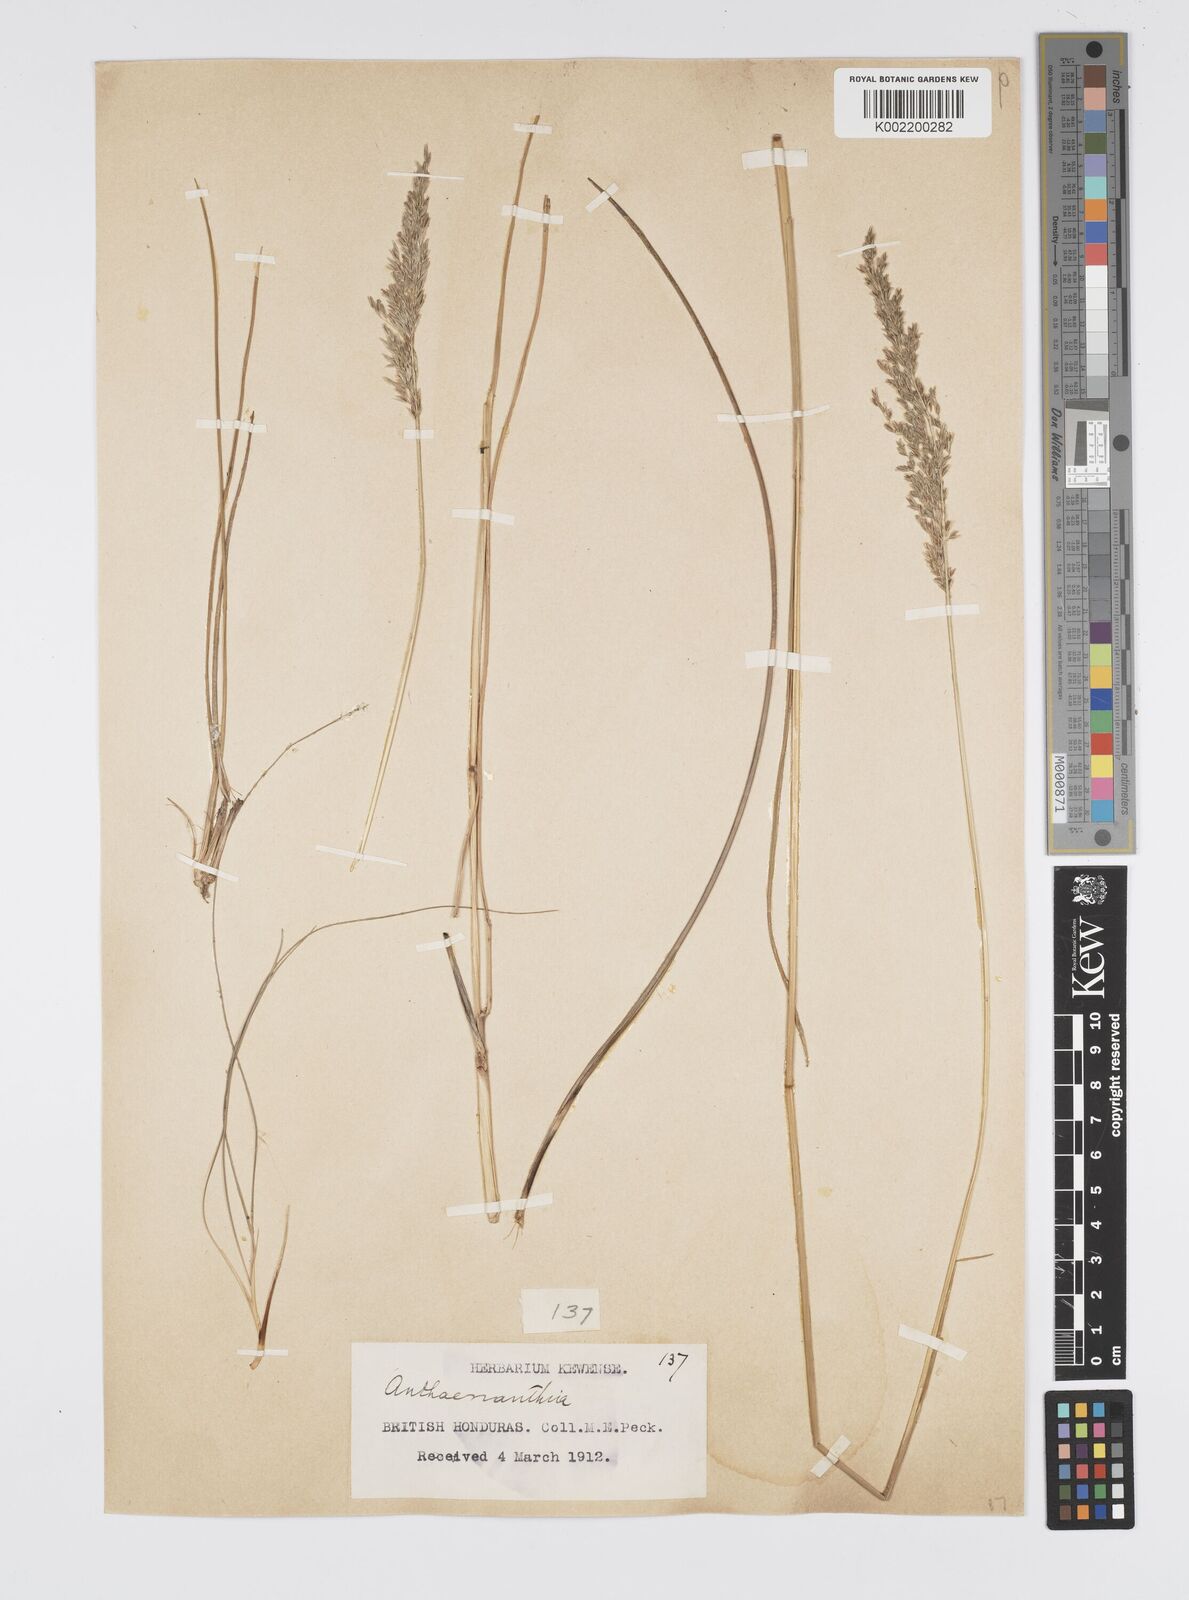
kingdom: Plantae
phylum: Tracheophyta
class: Liliopsida
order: Poales
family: Poaceae
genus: Anthenantia
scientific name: Anthenantia lanata
